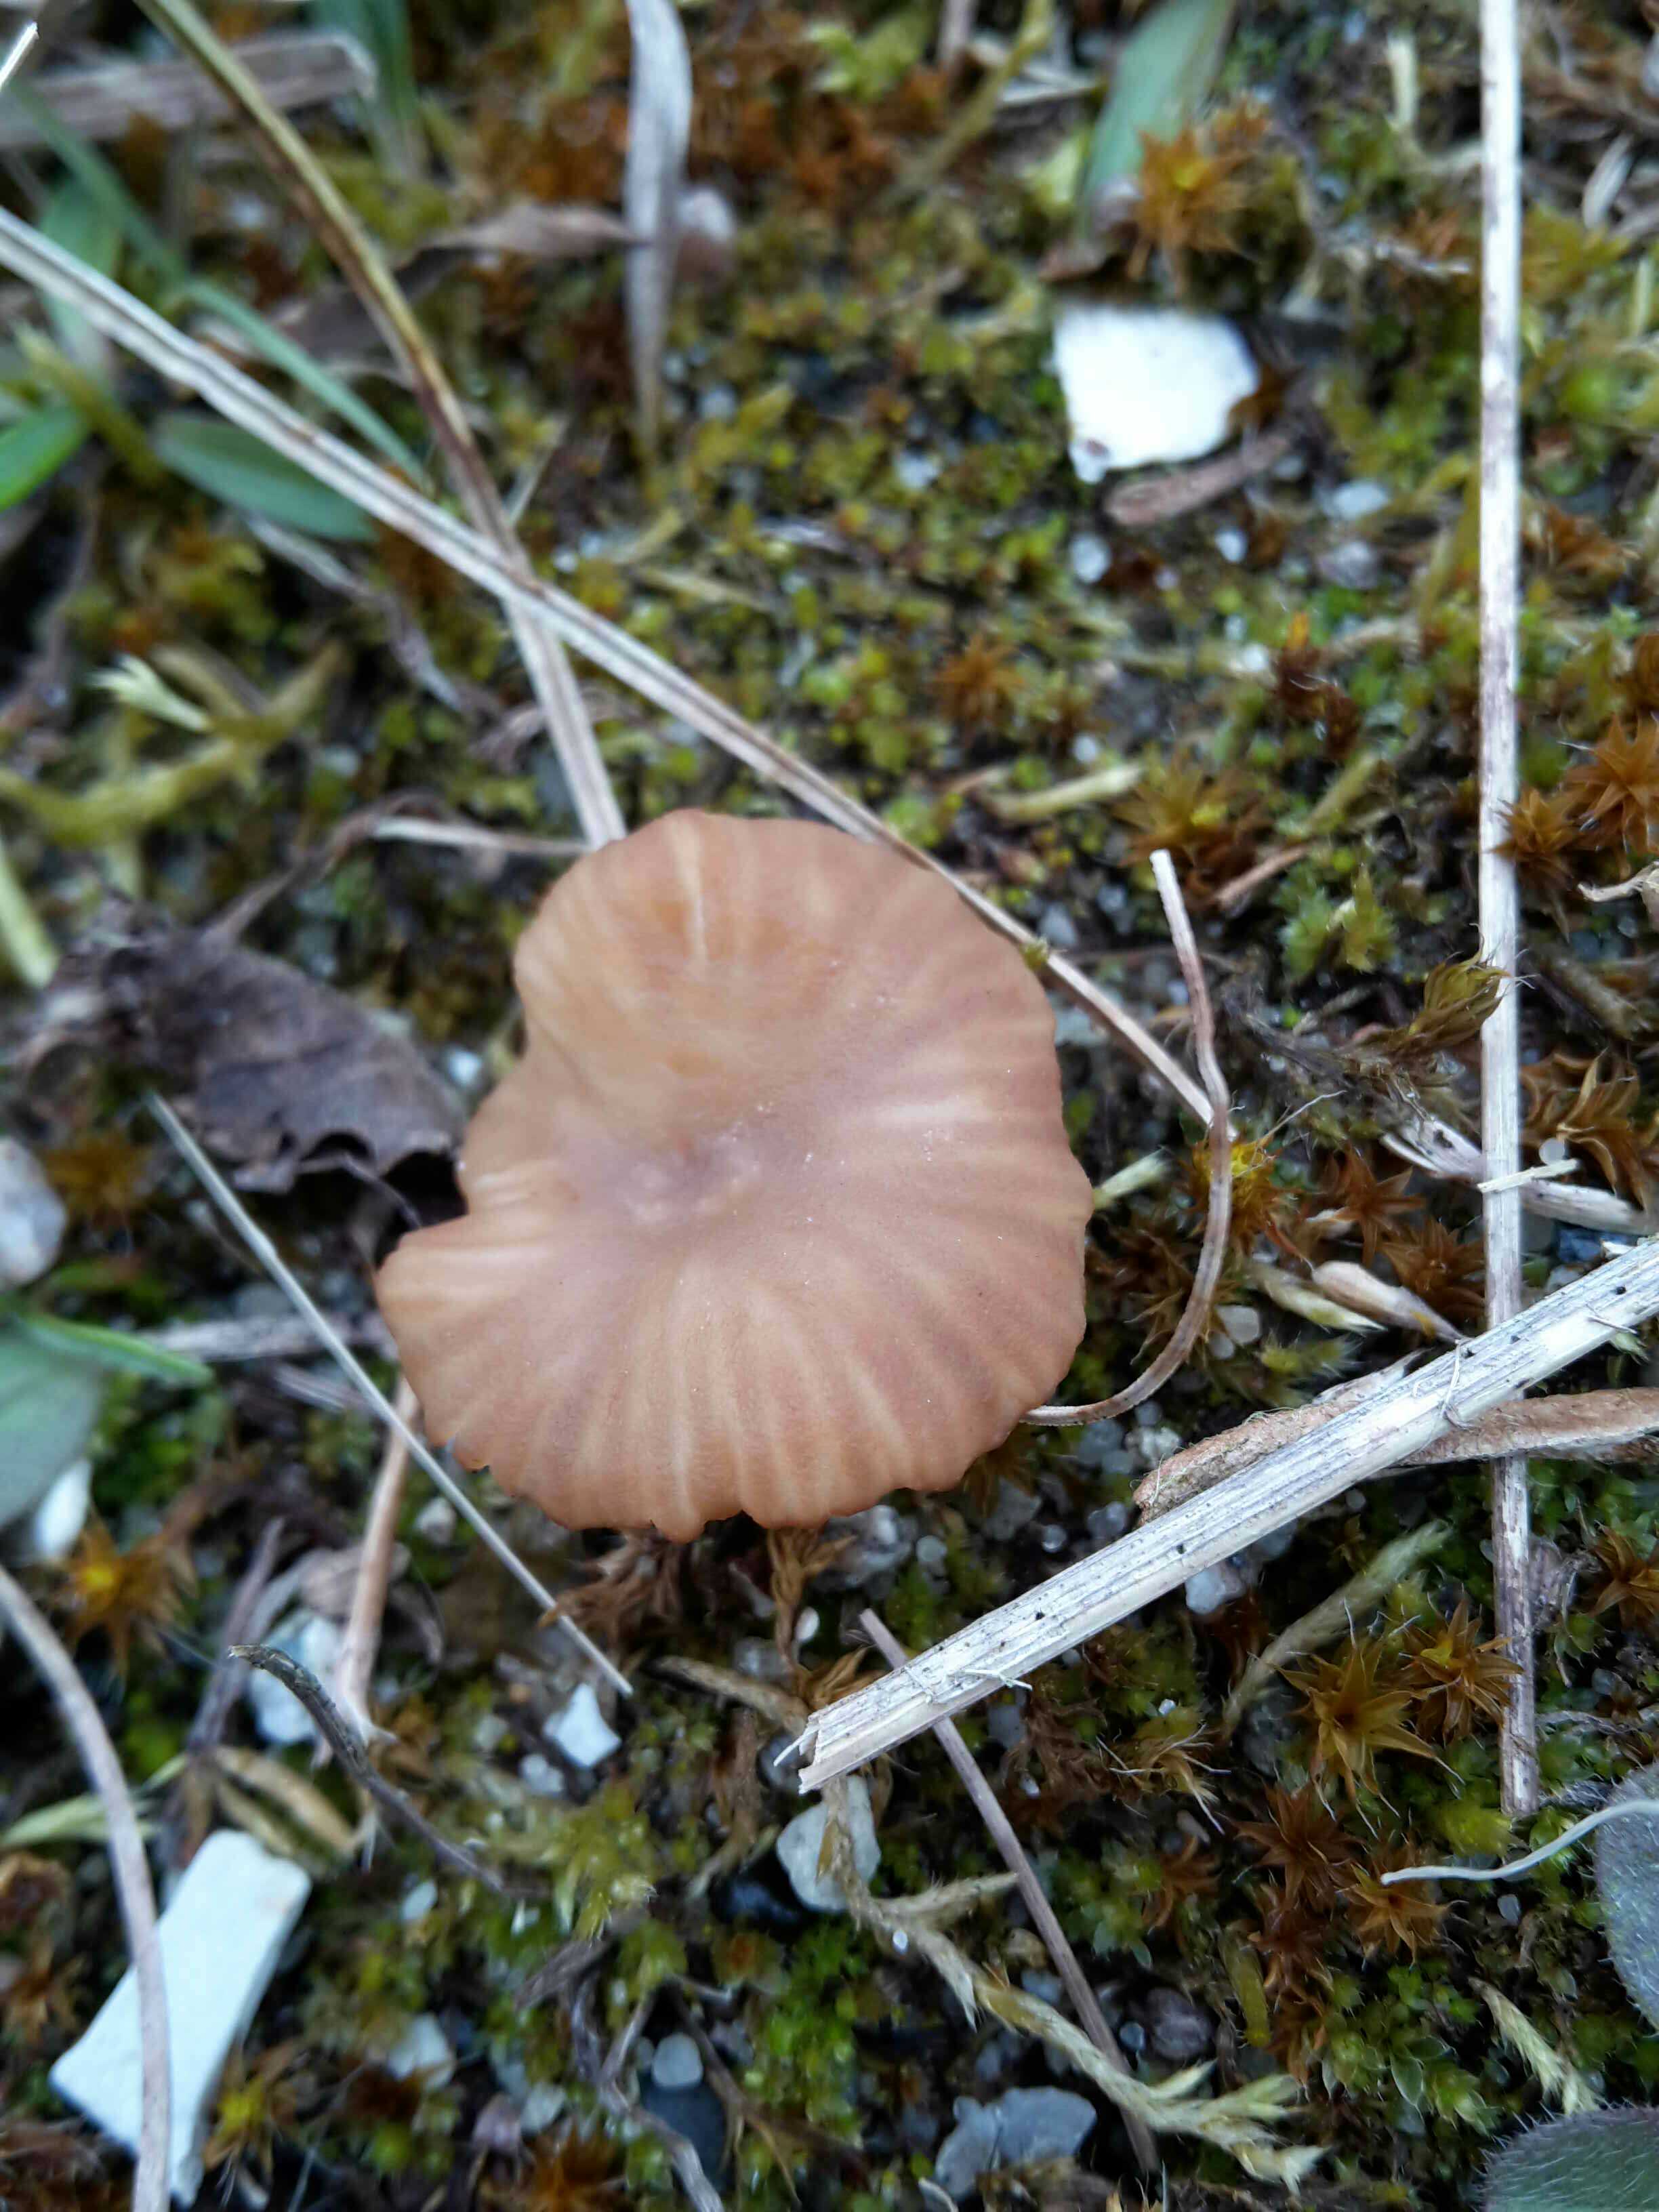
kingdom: Fungi
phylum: Basidiomycota
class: Agaricomycetes
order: Agaricales
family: Tricholomataceae
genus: Omphalina
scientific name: Omphalina pyxidata
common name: rødbrun navlehat
